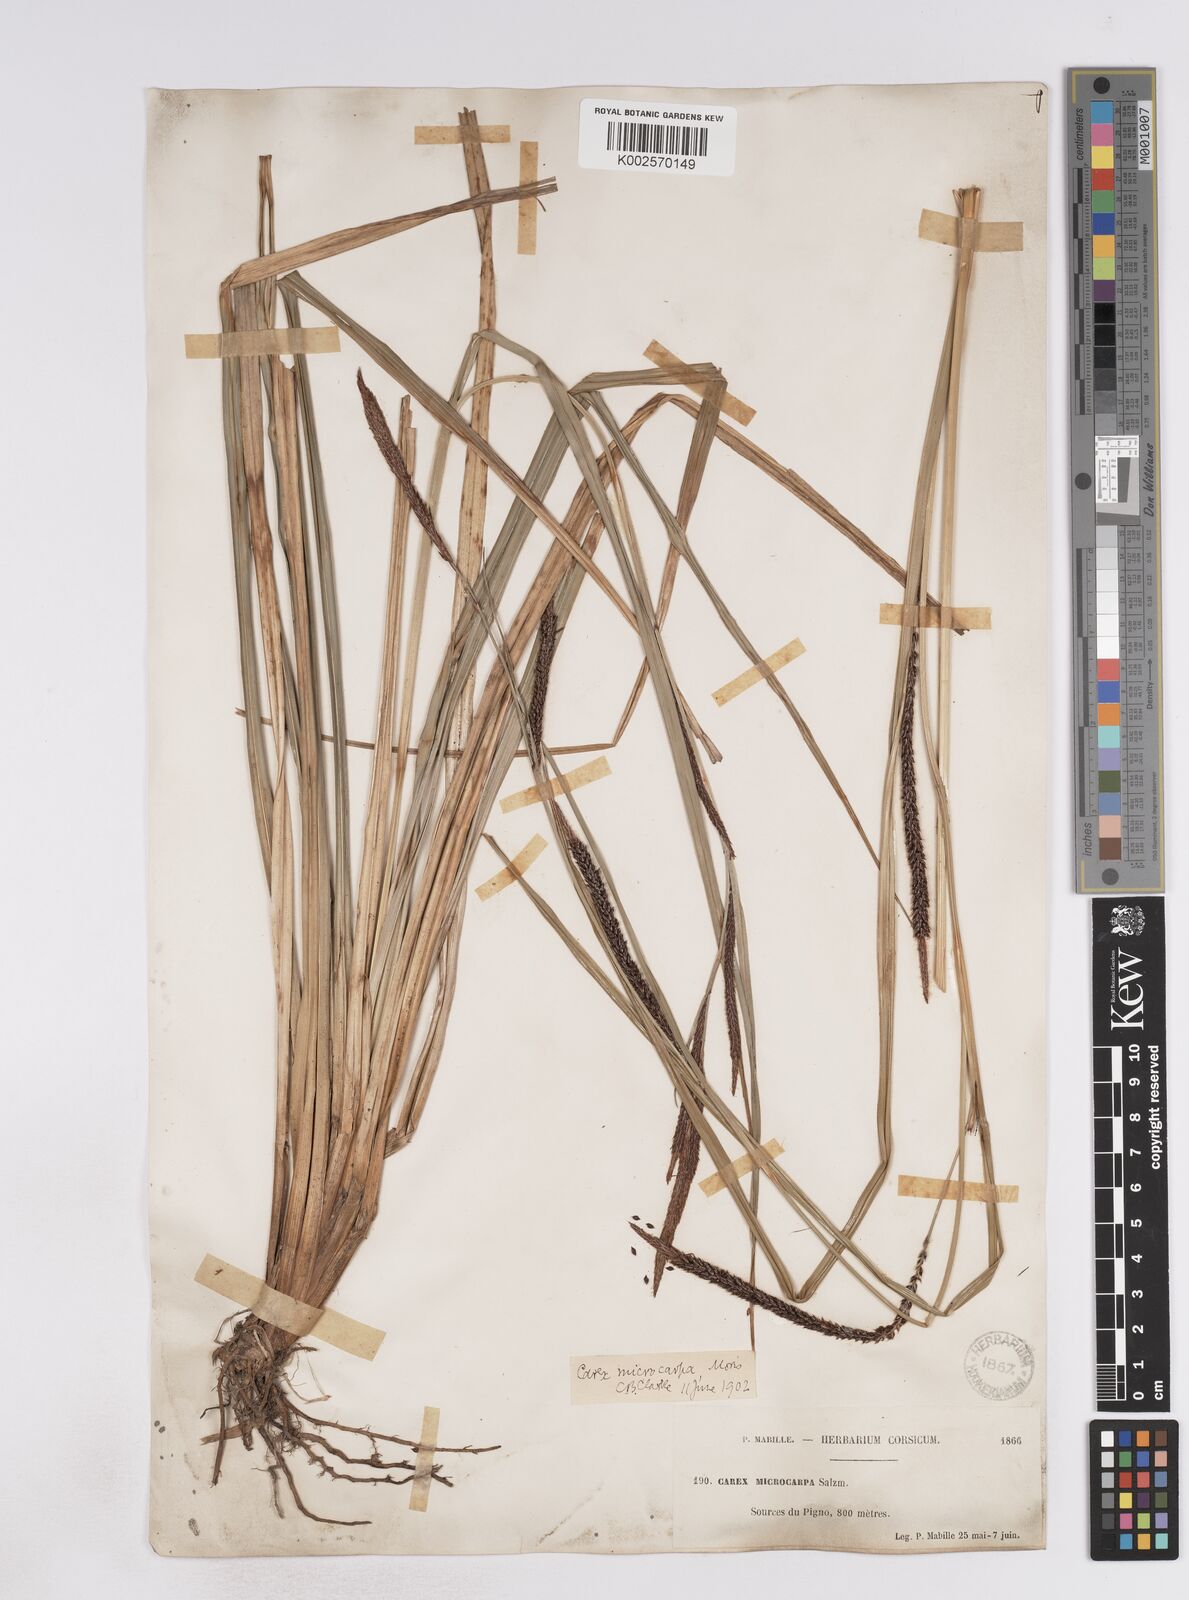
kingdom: Plantae
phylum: Tracheophyta
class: Liliopsida
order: Poales
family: Cyperaceae
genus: Carex
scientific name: Carex microcarpa
